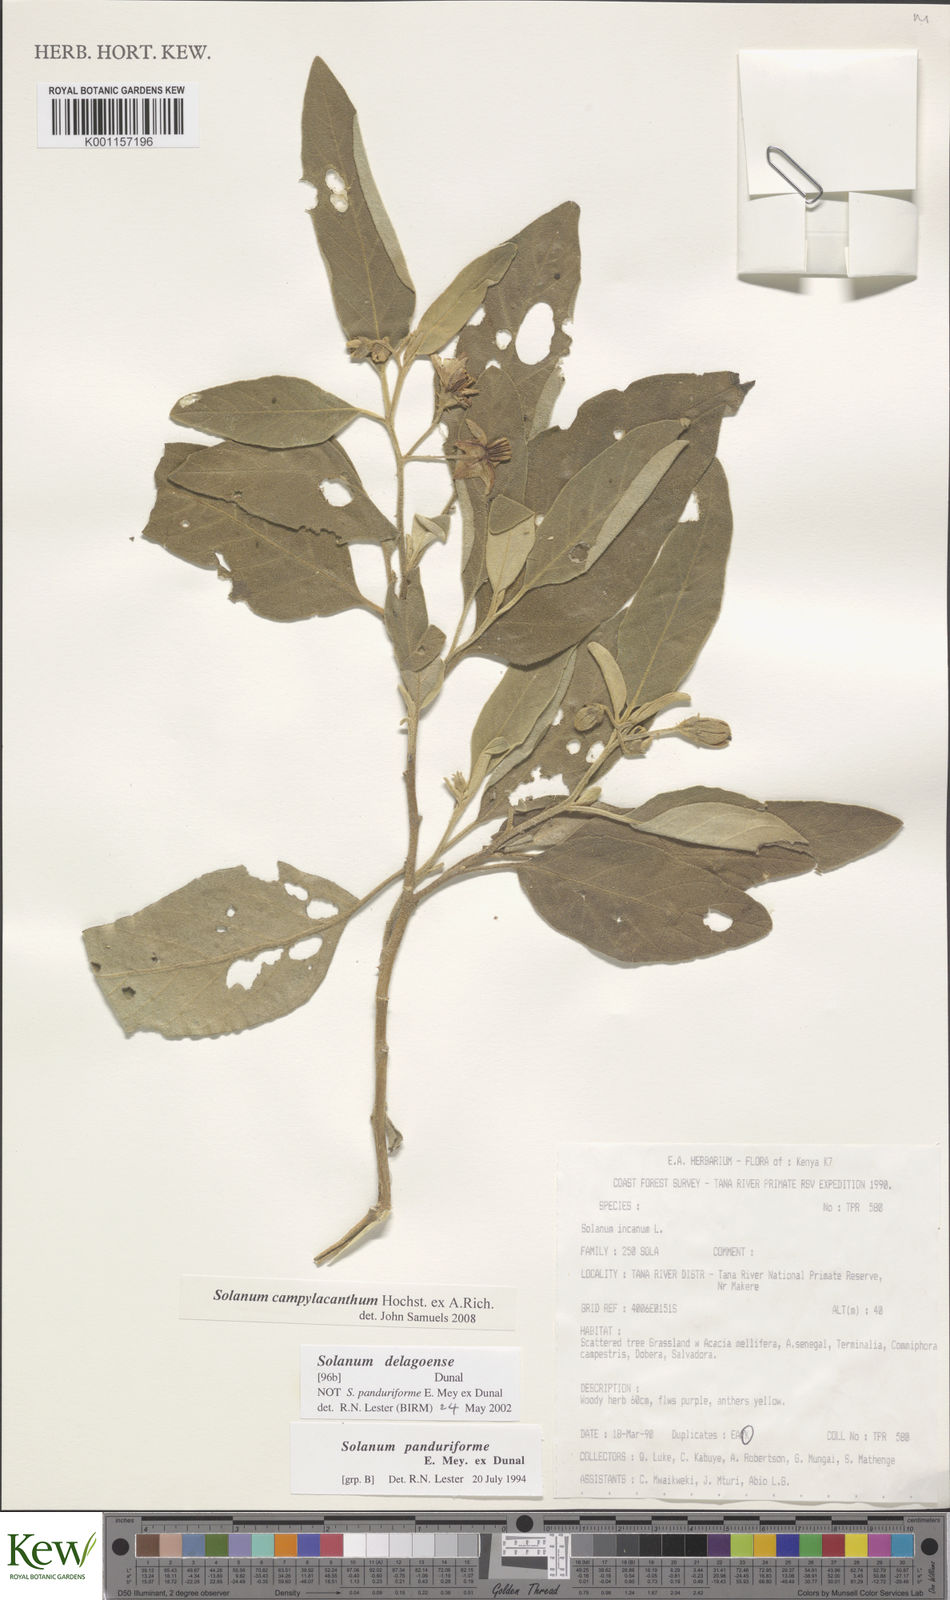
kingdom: Plantae
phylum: Tracheophyta
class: Magnoliopsida
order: Solanales
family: Solanaceae
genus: Solanum
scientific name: Solanum campylacanthum
